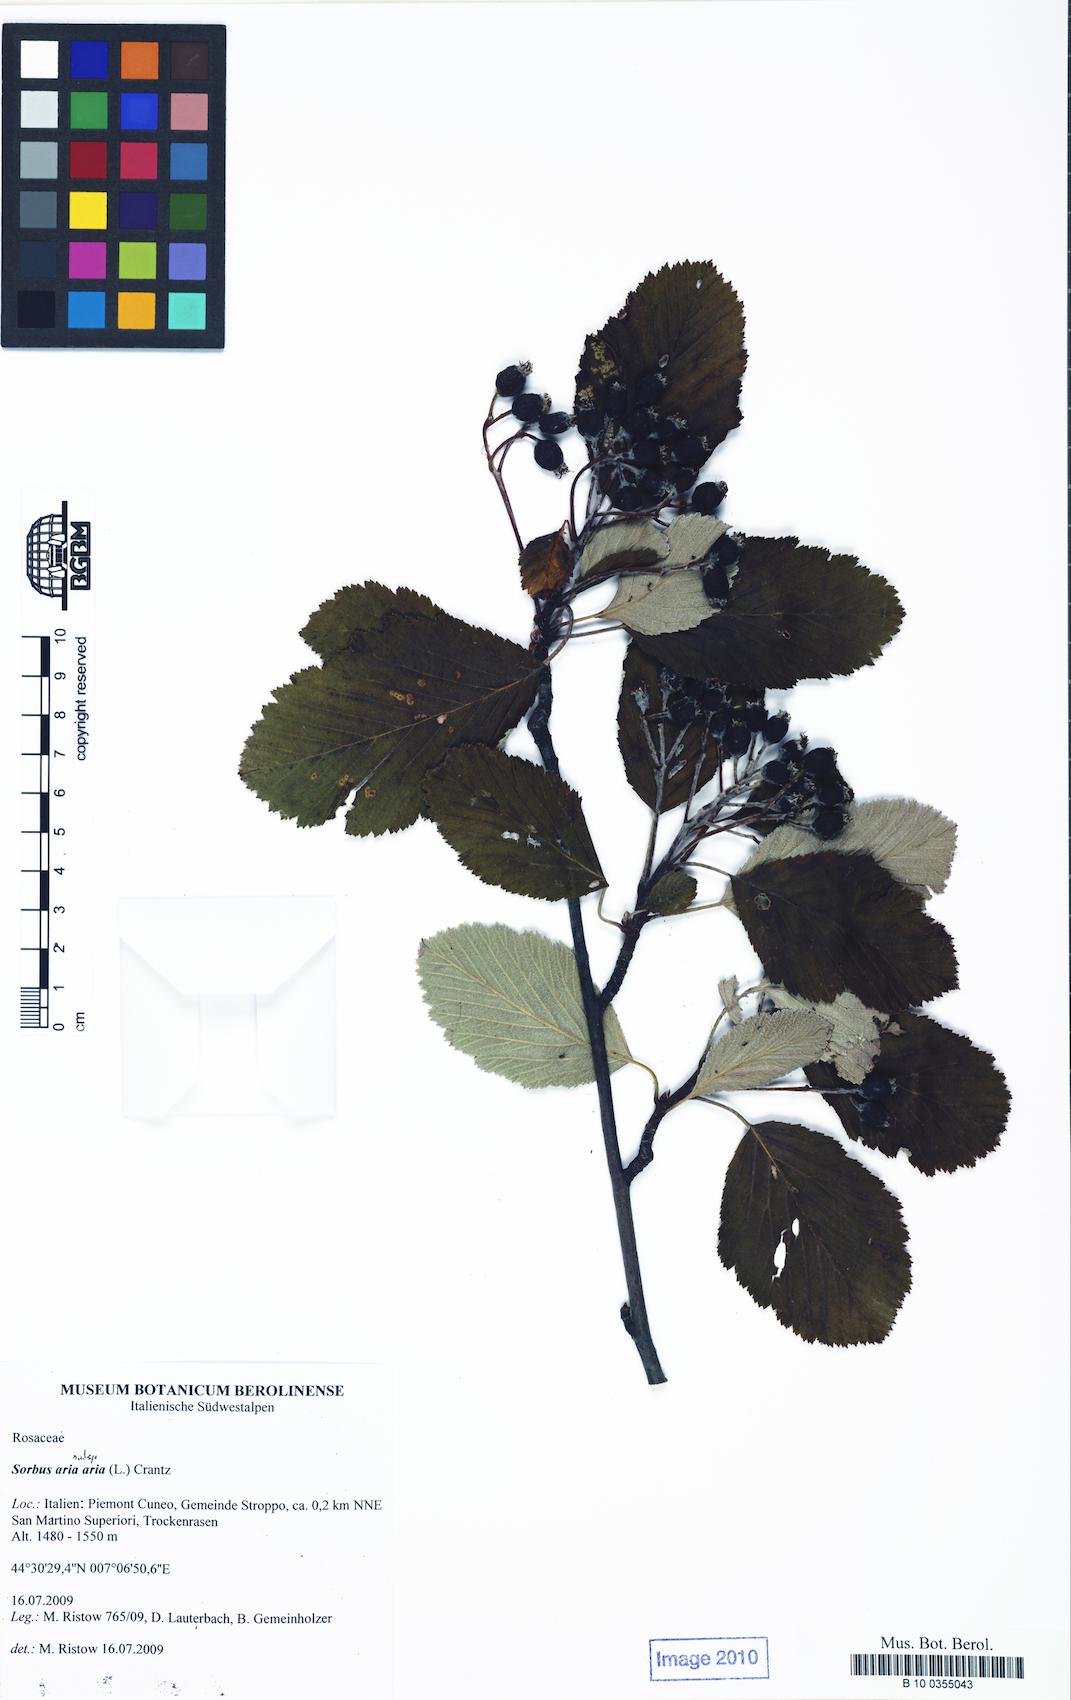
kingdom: Plantae
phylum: Tracheophyta
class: Magnoliopsida
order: Rosales
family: Rosaceae
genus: Aria
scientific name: Aria edulis
